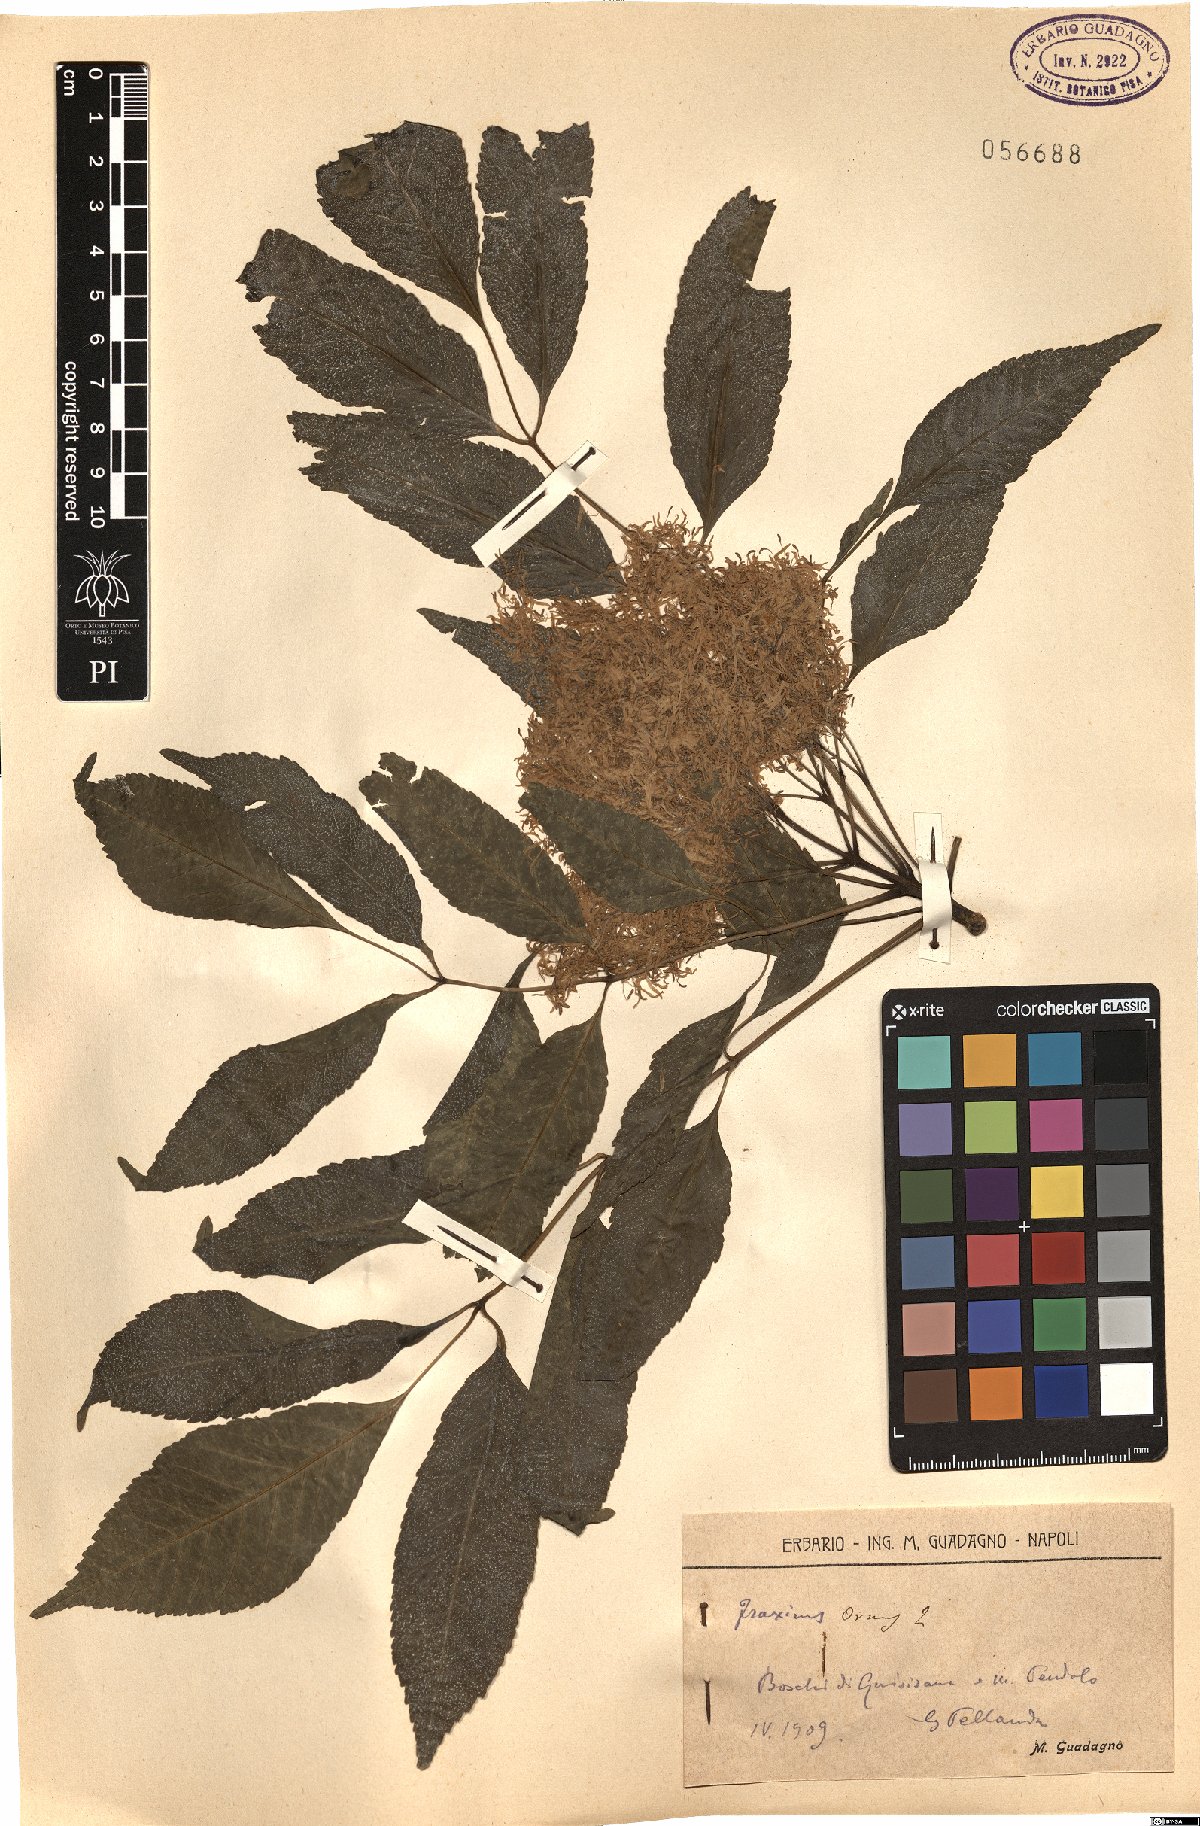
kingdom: Plantae
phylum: Tracheophyta
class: Magnoliopsida
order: Lamiales
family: Oleaceae
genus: Fraxinus
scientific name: Fraxinus ornus
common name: Manna ash
